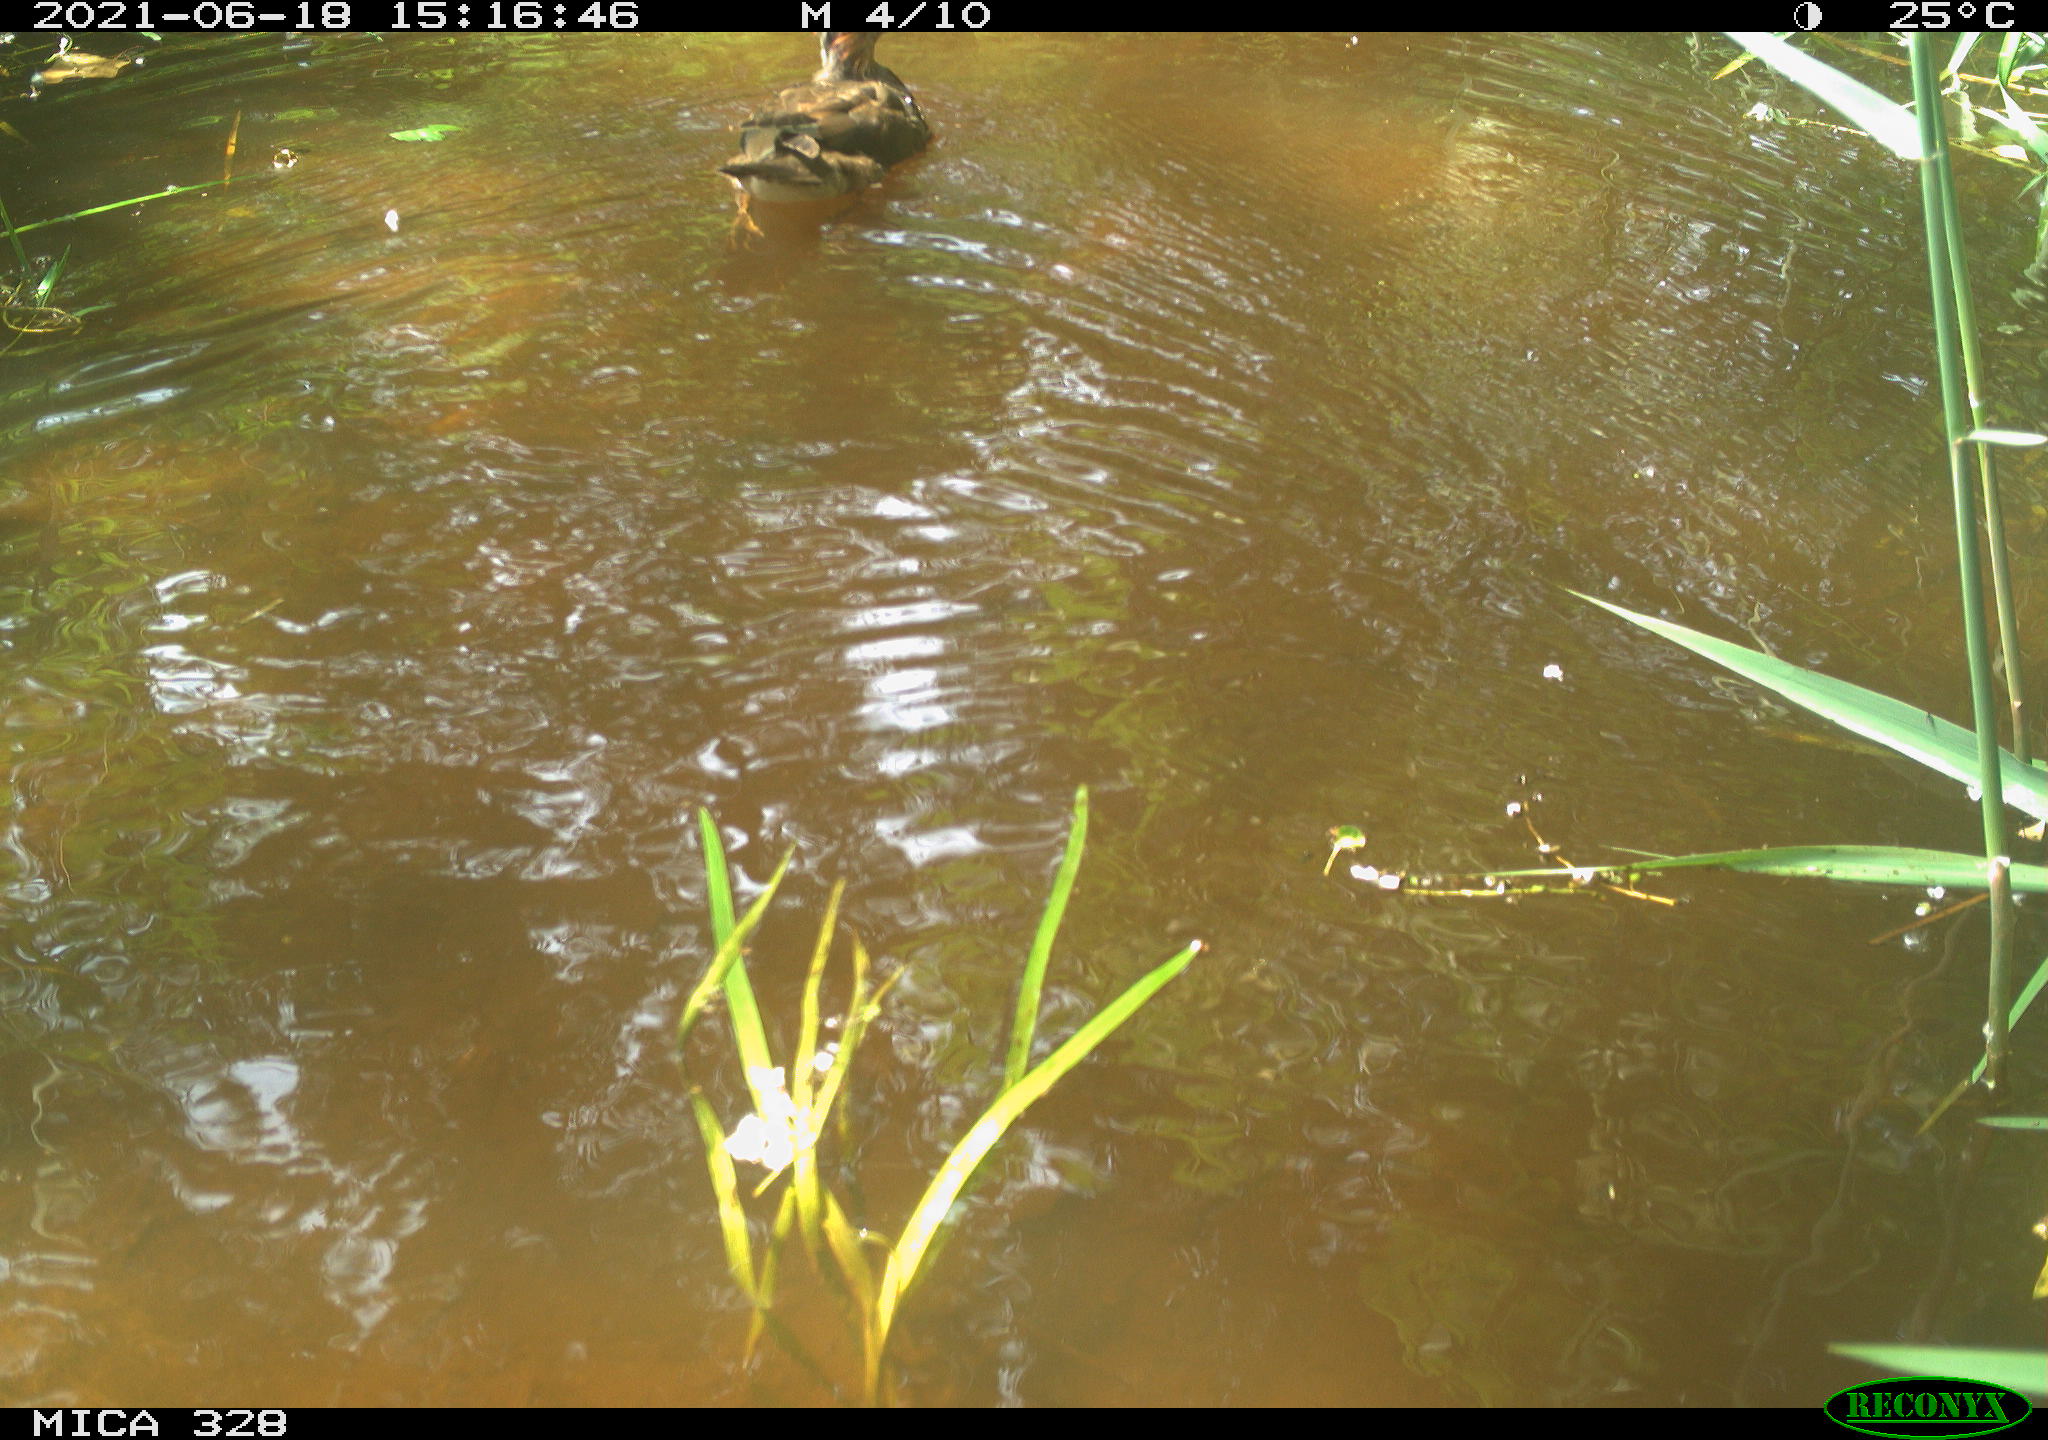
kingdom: Animalia
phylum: Chordata
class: Aves
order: Anseriformes
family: Anatidae
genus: Aix
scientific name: Aix galericulata
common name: Mandarin duck
